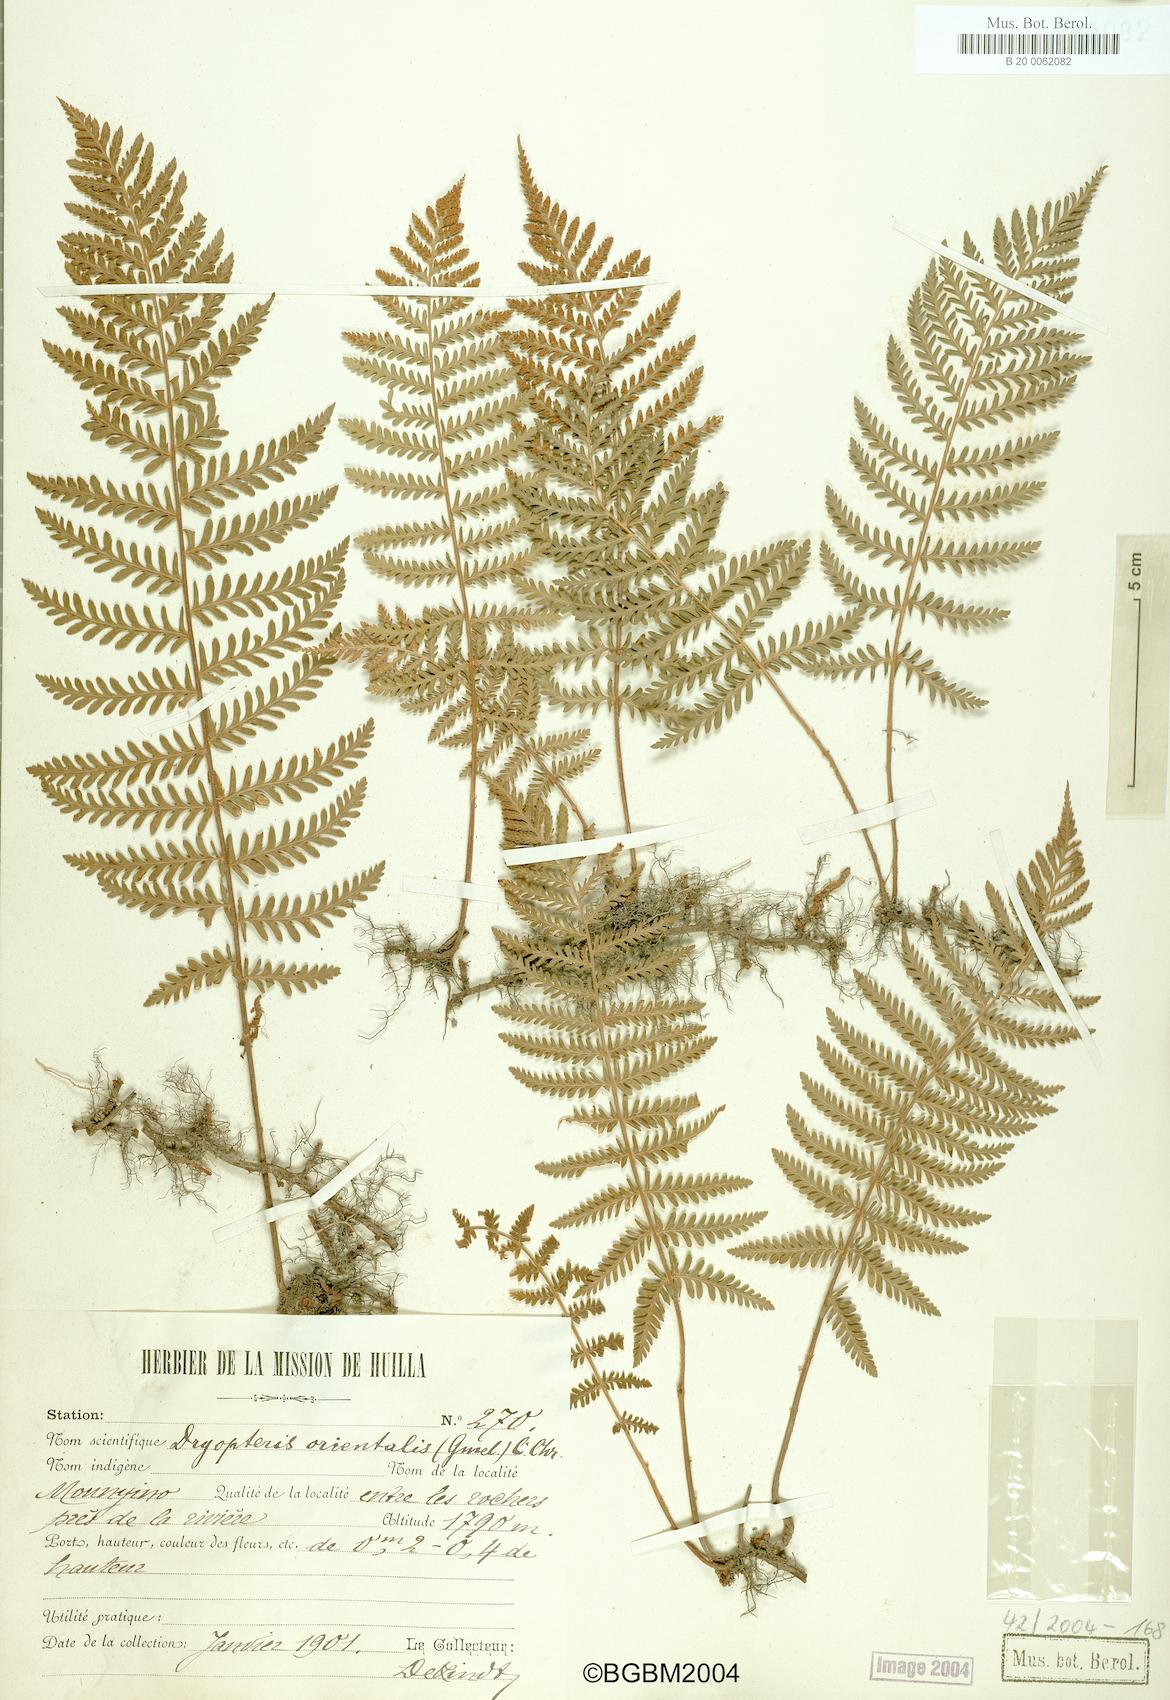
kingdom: Plantae
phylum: Tracheophyta
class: Polypodiopsida
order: Polypodiales
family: Tectariaceae
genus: Arthropteris
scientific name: Arthropteris orientalis
